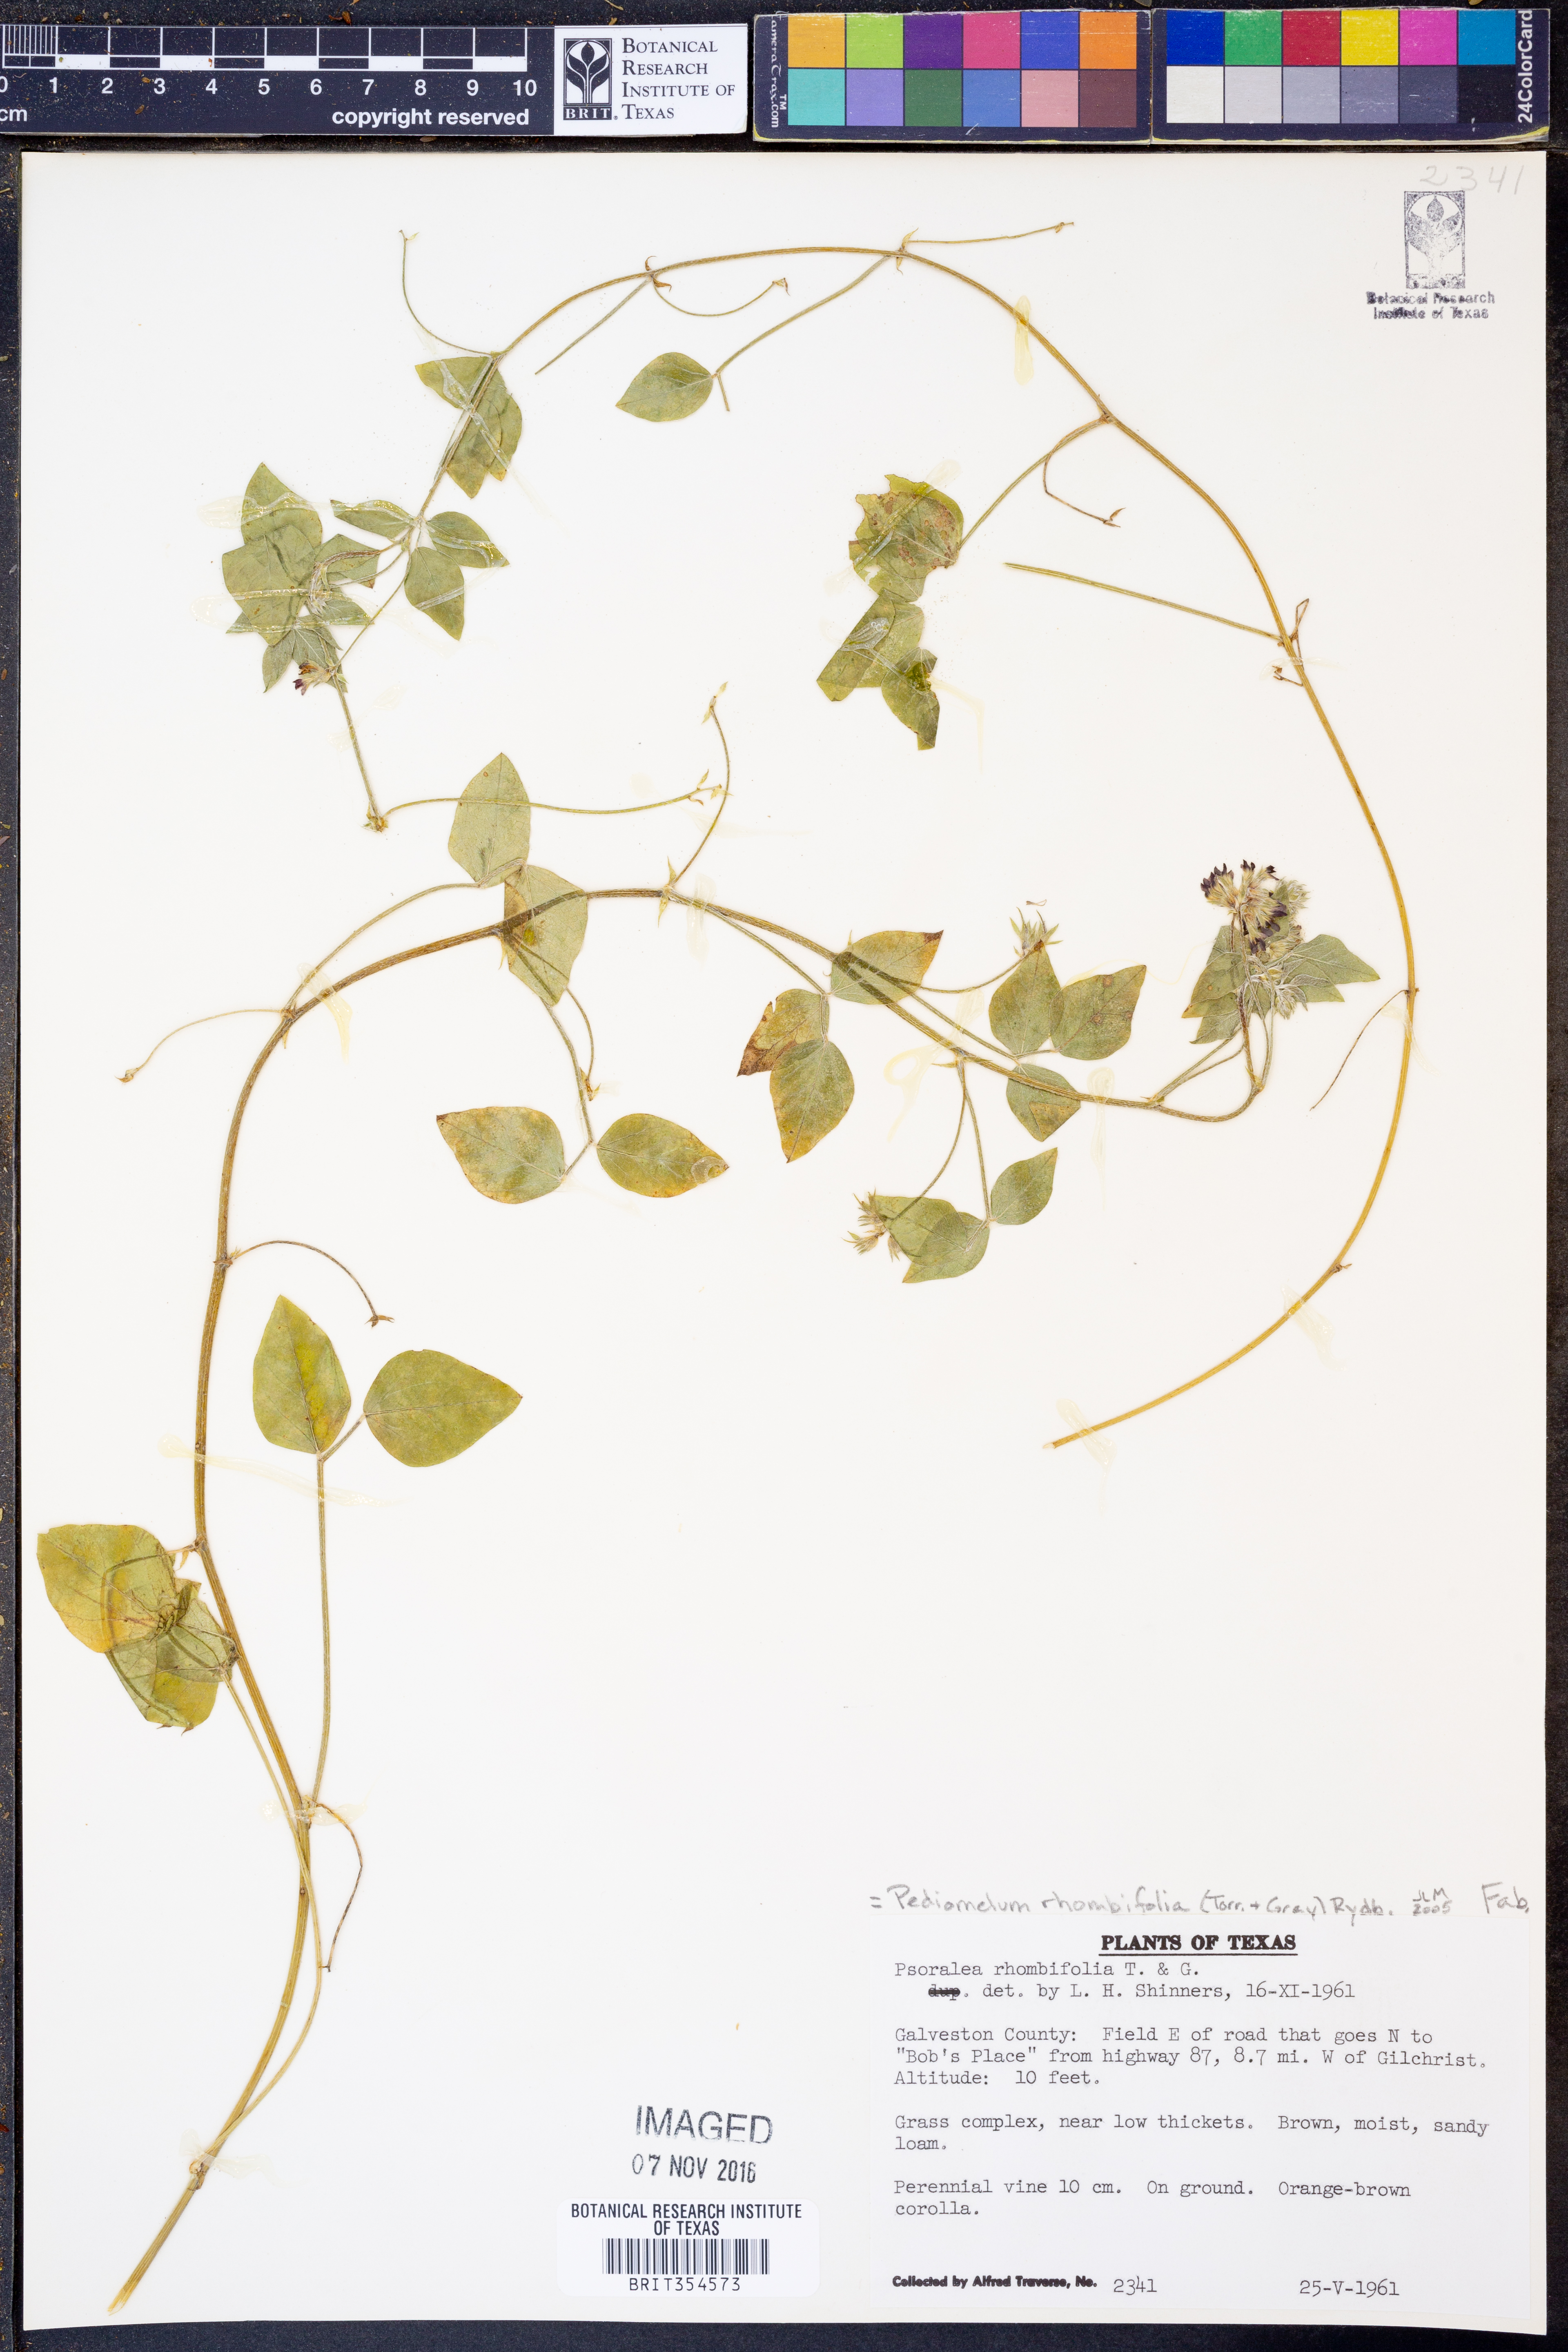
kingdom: Plantae
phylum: Tracheophyta
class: Magnoliopsida
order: Fabales
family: Fabaceae
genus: Pediomelum
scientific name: Pediomelum rhombifolium
